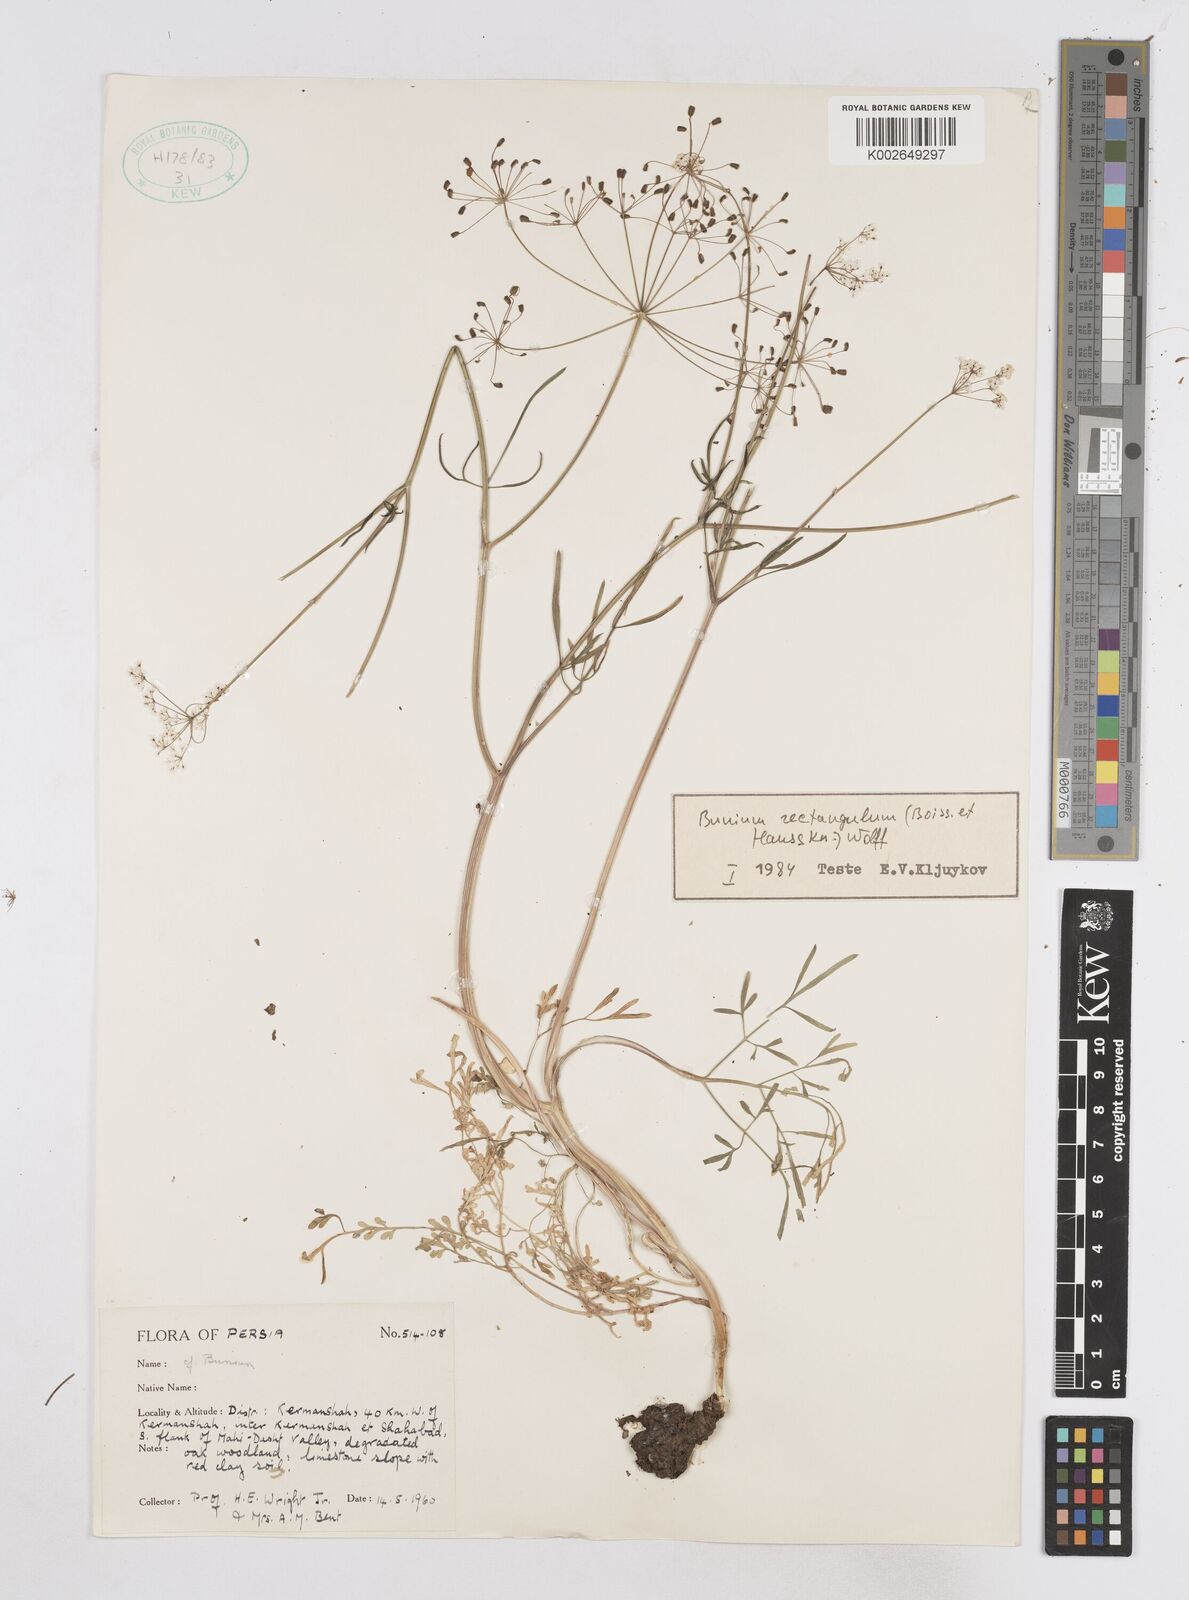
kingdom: Plantae
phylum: Tracheophyta
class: Magnoliopsida
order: Apiales
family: Apiaceae
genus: Bunium
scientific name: Bunium rectangulum
